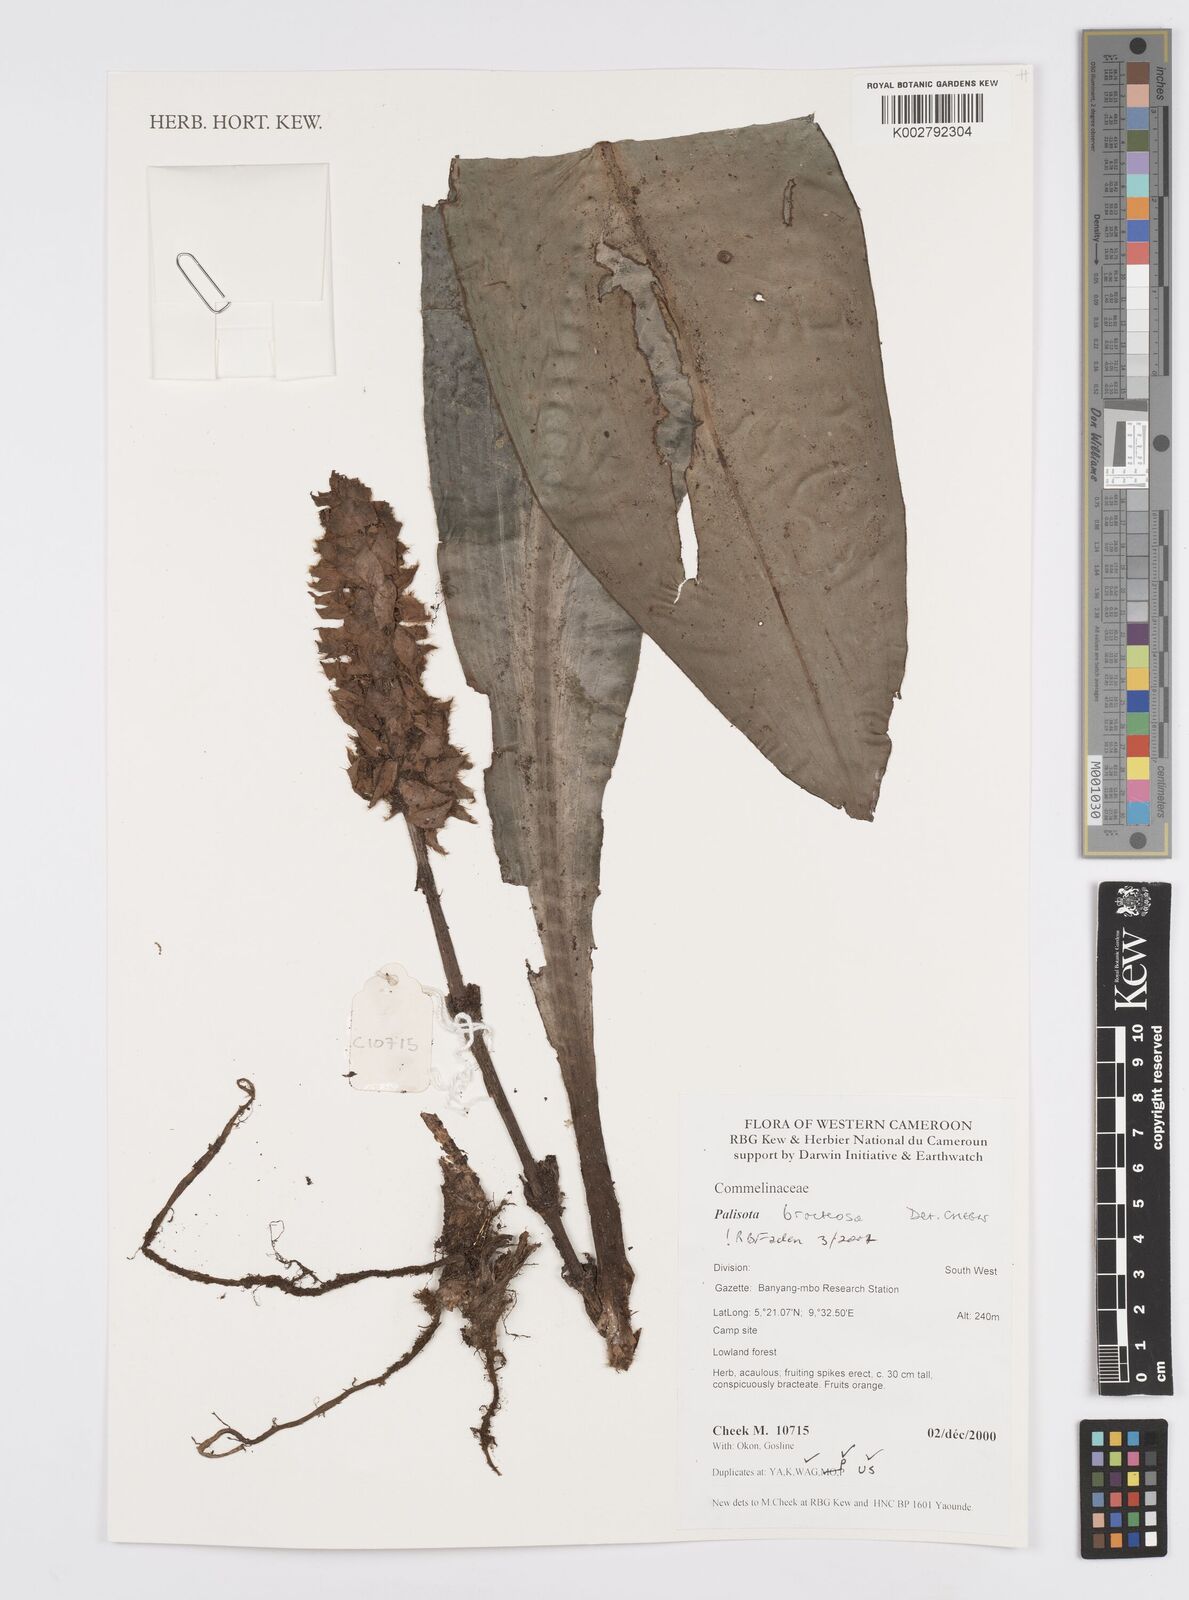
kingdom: Plantae
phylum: Tracheophyta
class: Liliopsida
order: Commelinales
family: Commelinaceae
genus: Palisota
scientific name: Palisota bracteosa
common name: Palisota
